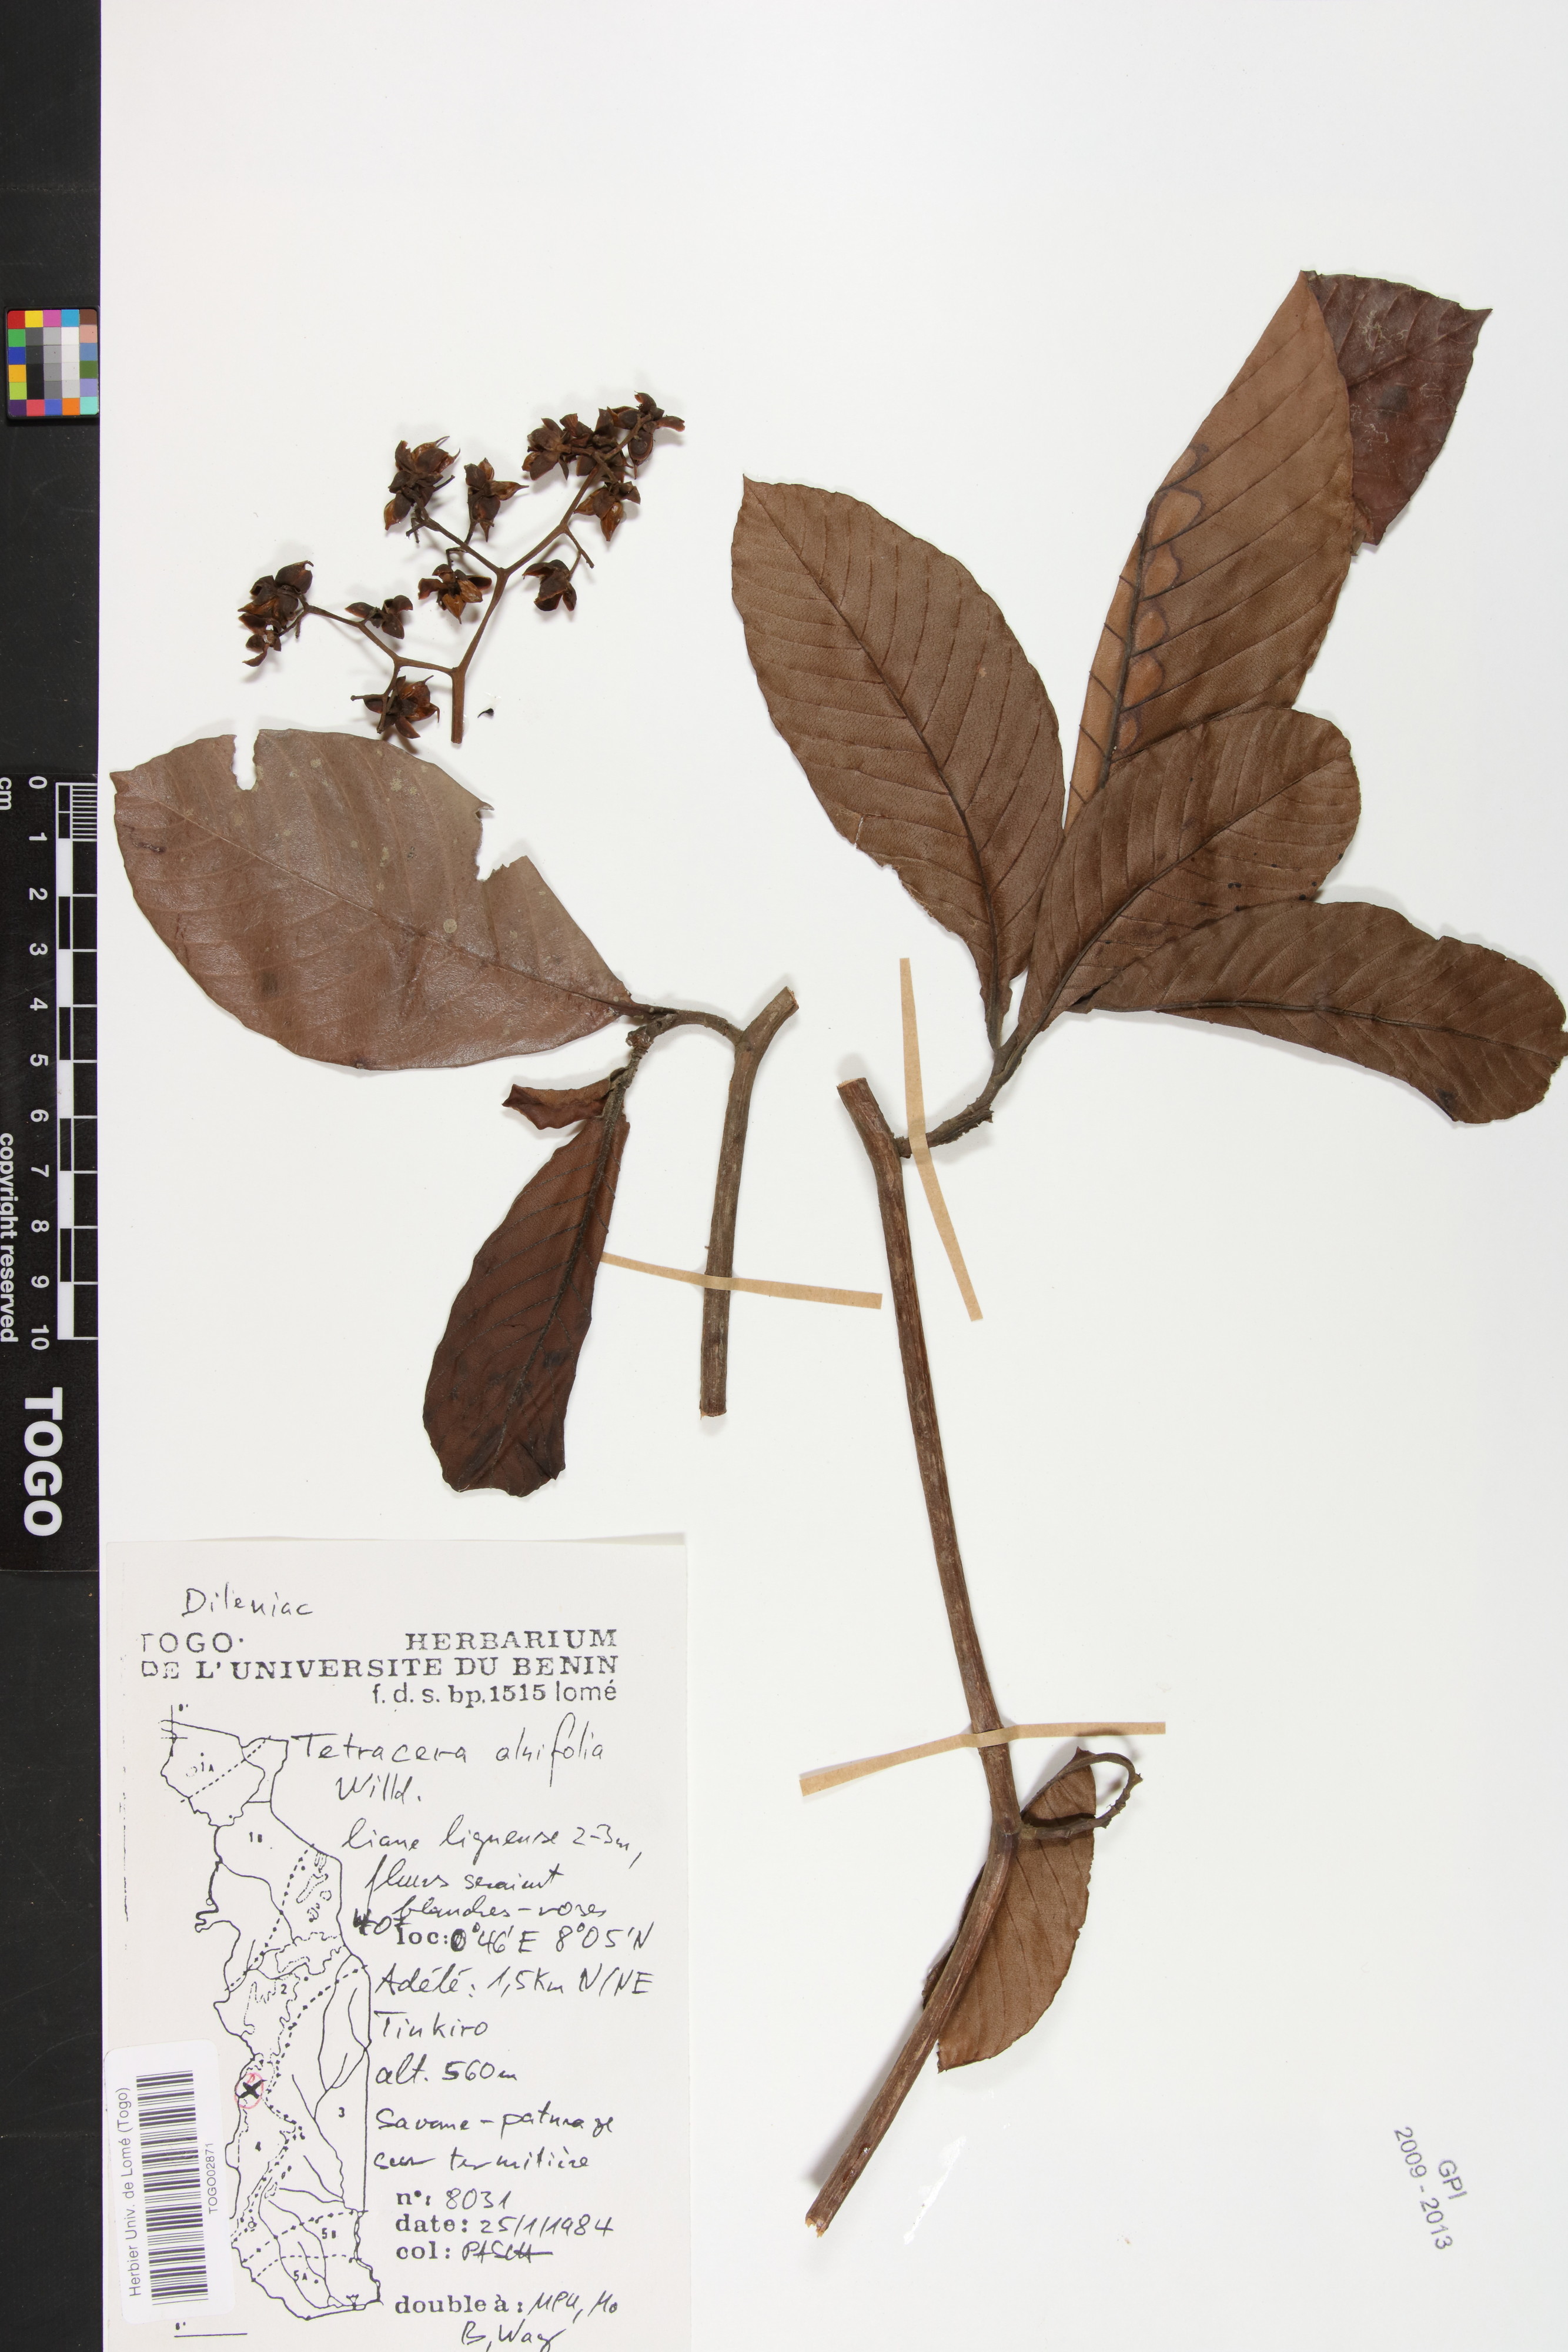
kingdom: Plantae
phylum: Tracheophyta
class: Magnoliopsida
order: Dilleniales
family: Dilleniaceae
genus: Tetracera
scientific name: Tetracera alnifolia
